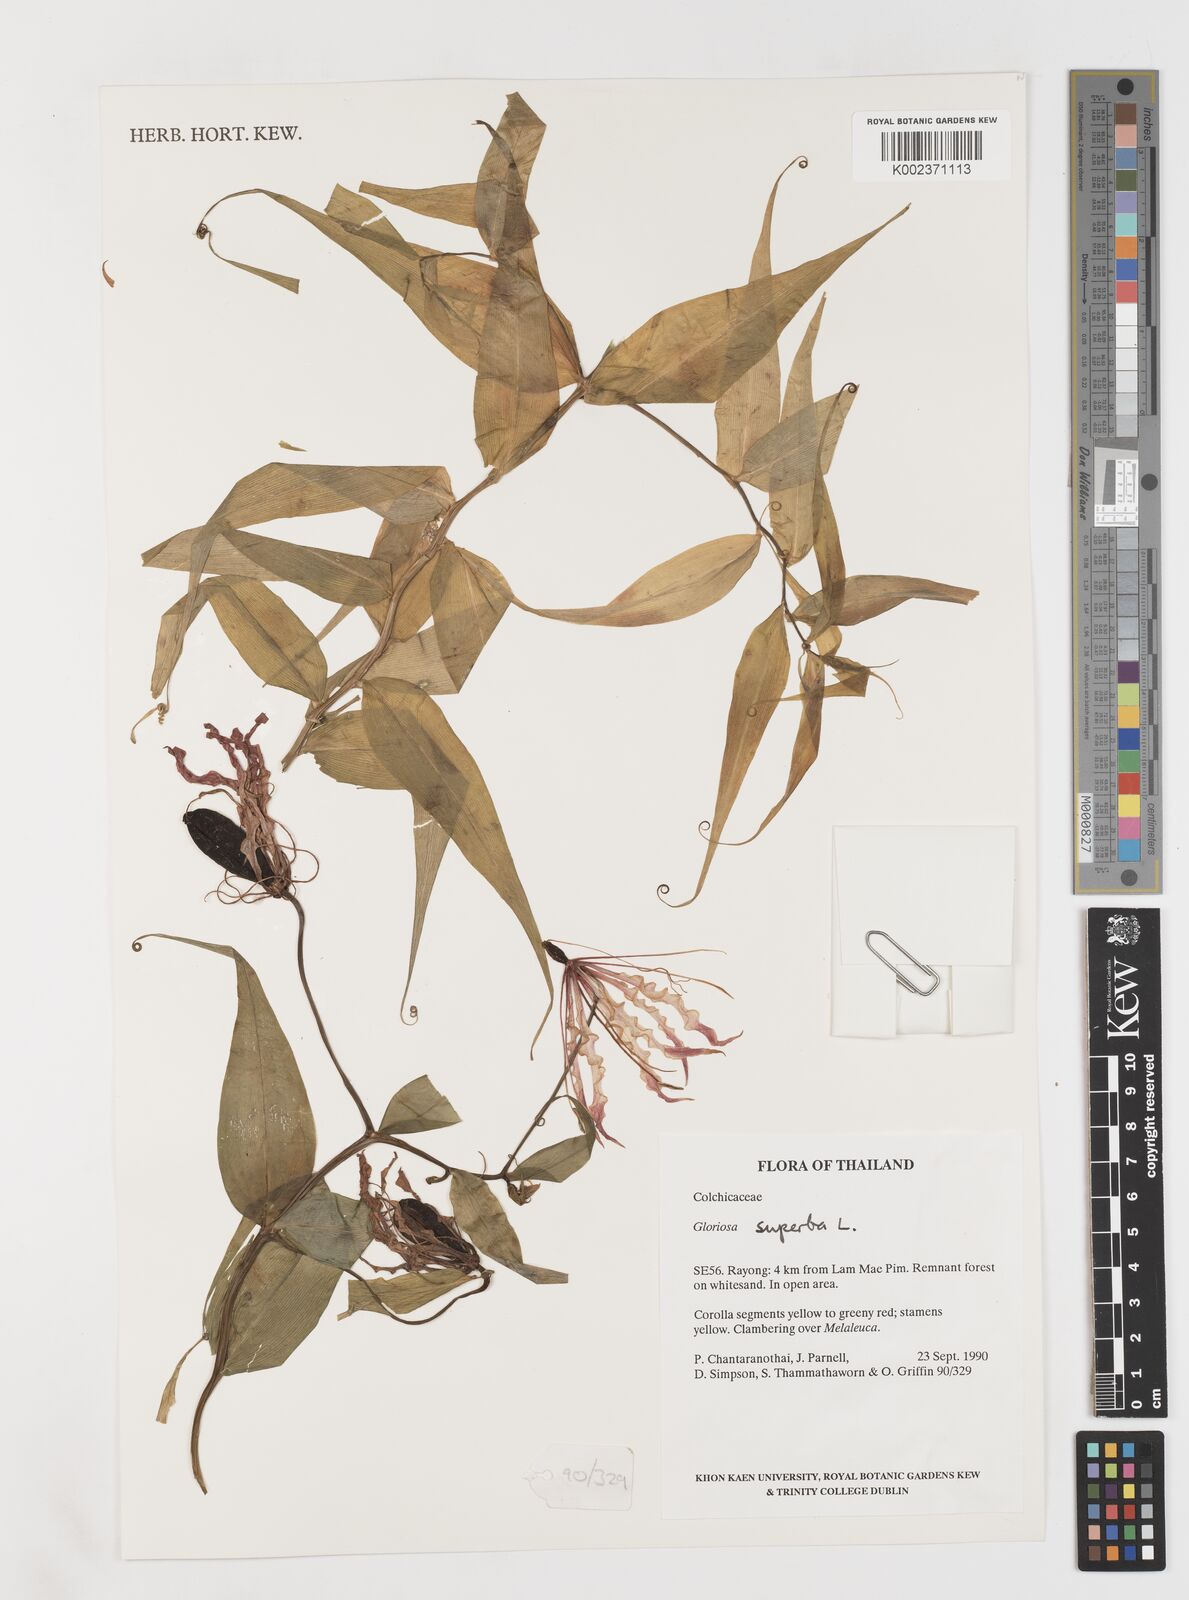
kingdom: Plantae
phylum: Tracheophyta
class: Liliopsida
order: Liliales
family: Colchicaceae
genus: Gloriosa
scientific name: Gloriosa superba
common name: Flame lily
